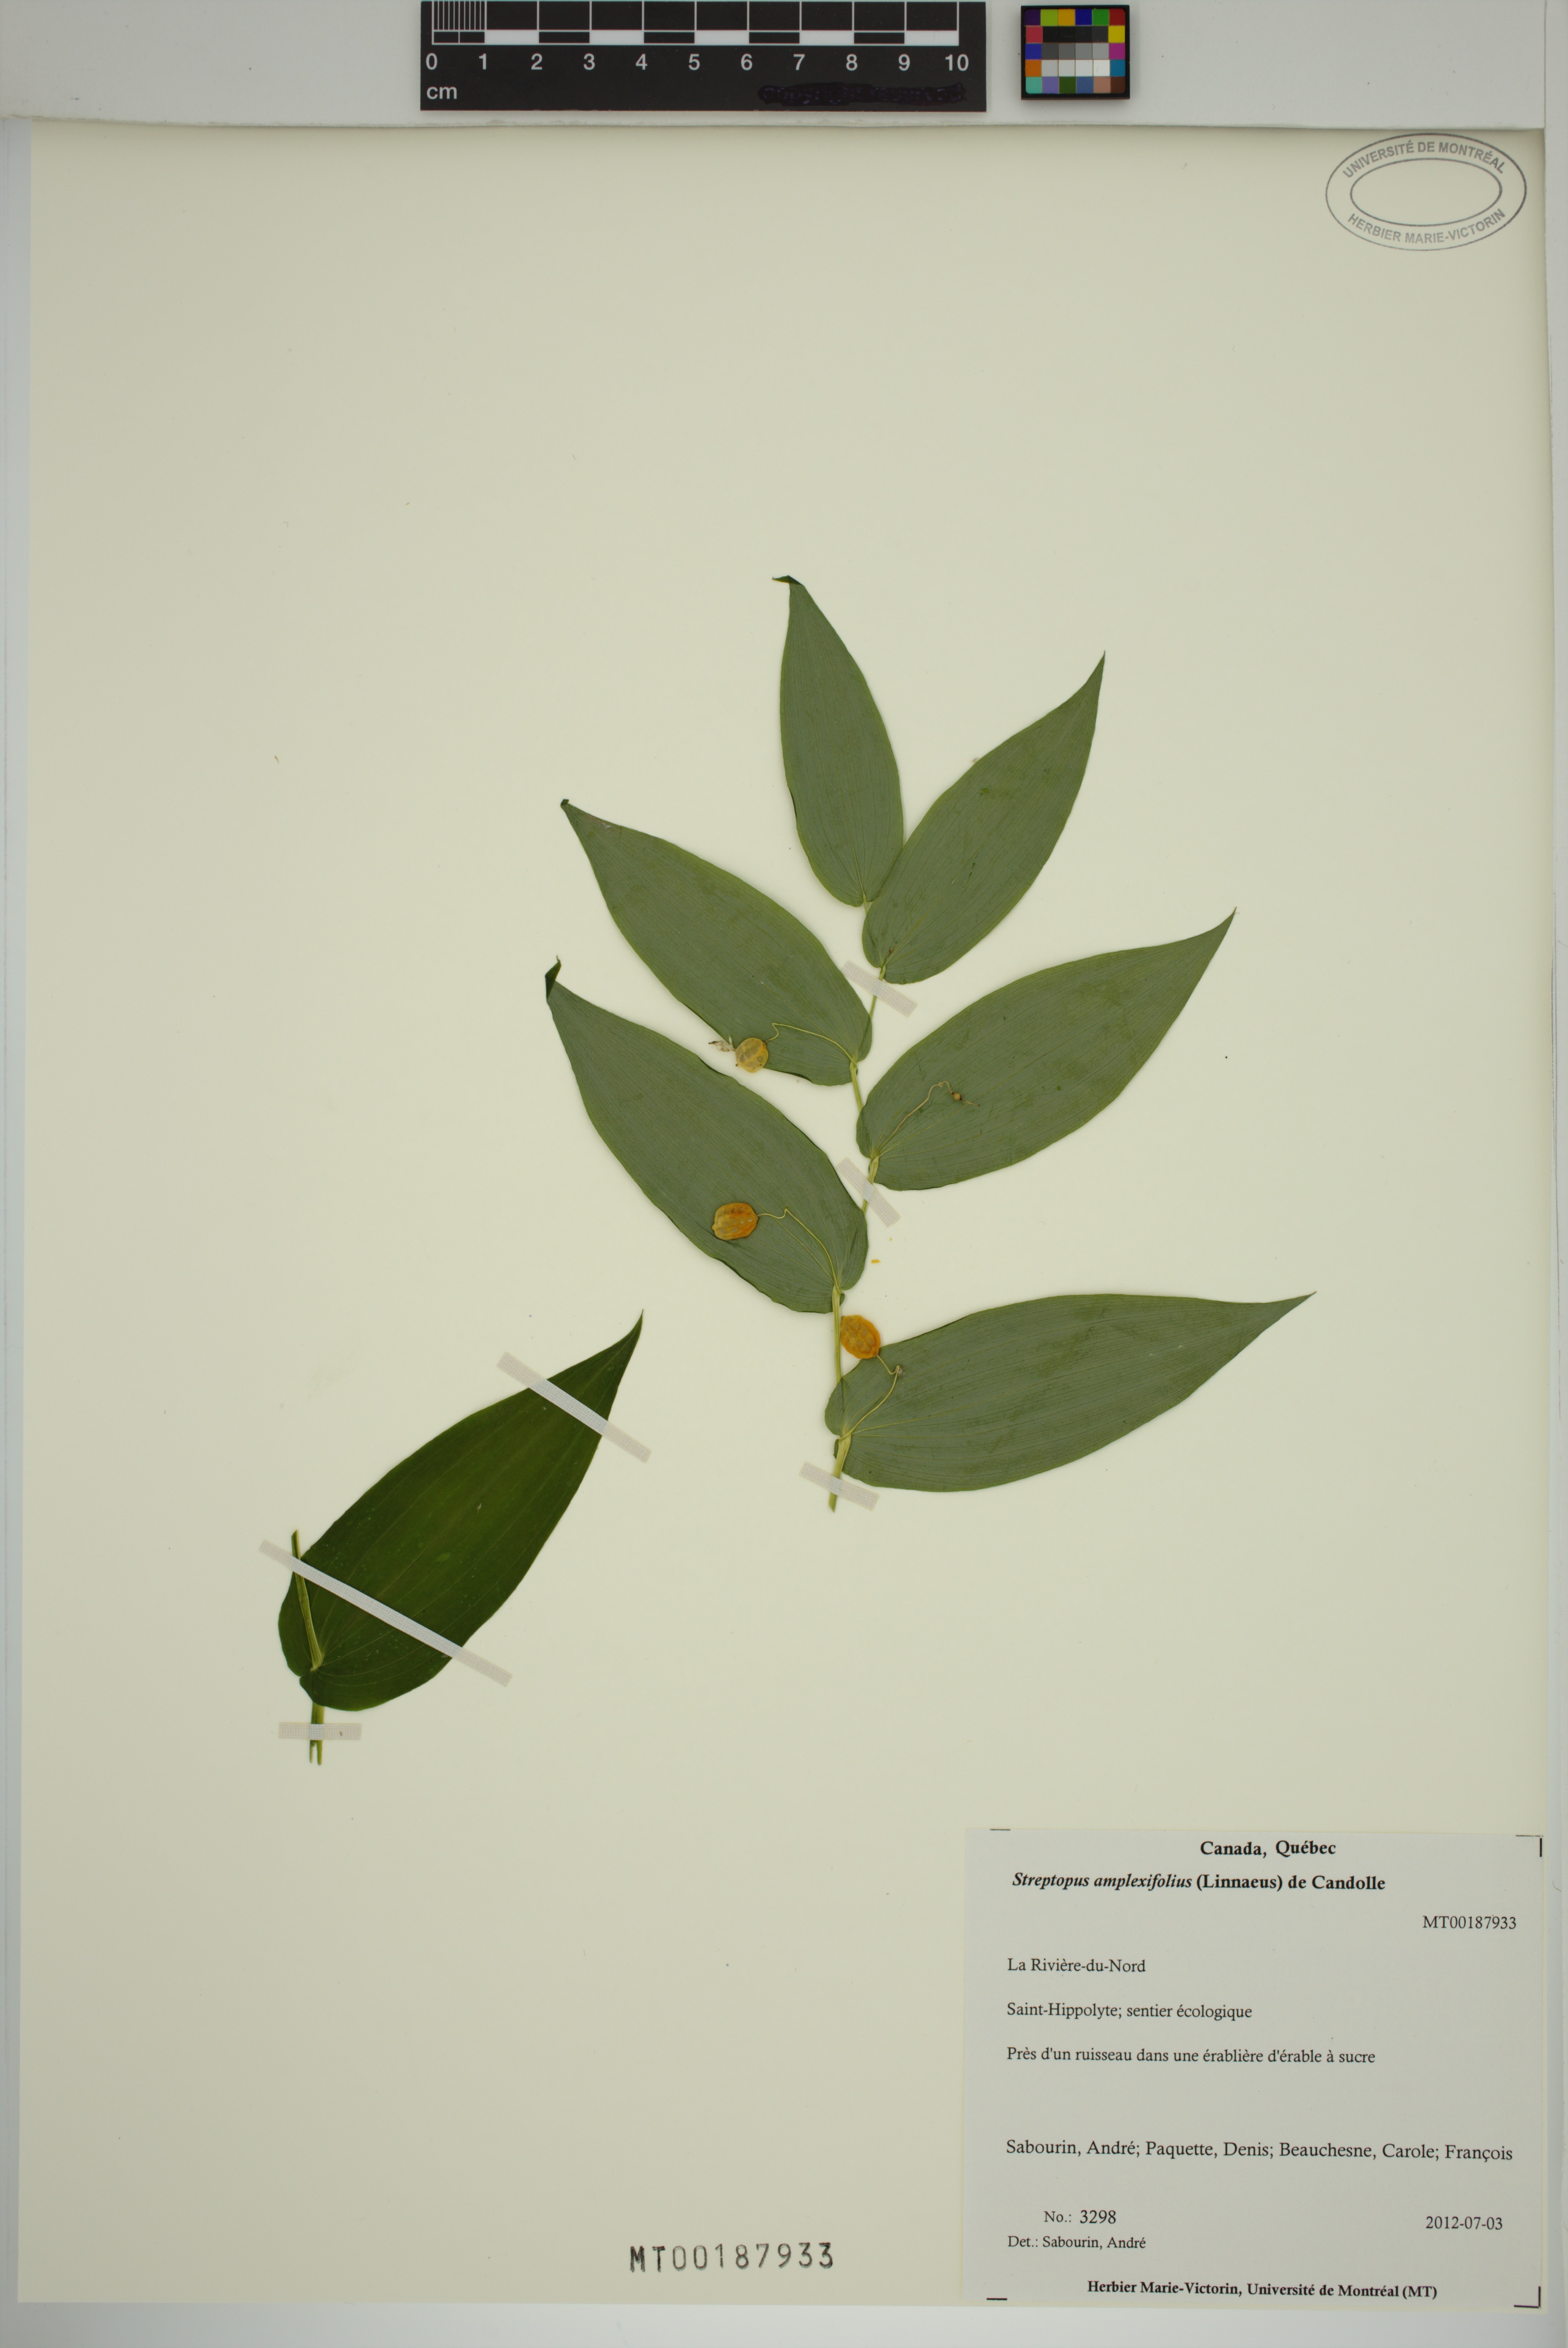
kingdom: Plantae
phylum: Tracheophyta
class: Liliopsida
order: Liliales
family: Liliaceae
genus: Streptopus
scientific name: Streptopus amplexifolius
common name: Clasp twisted stalk
